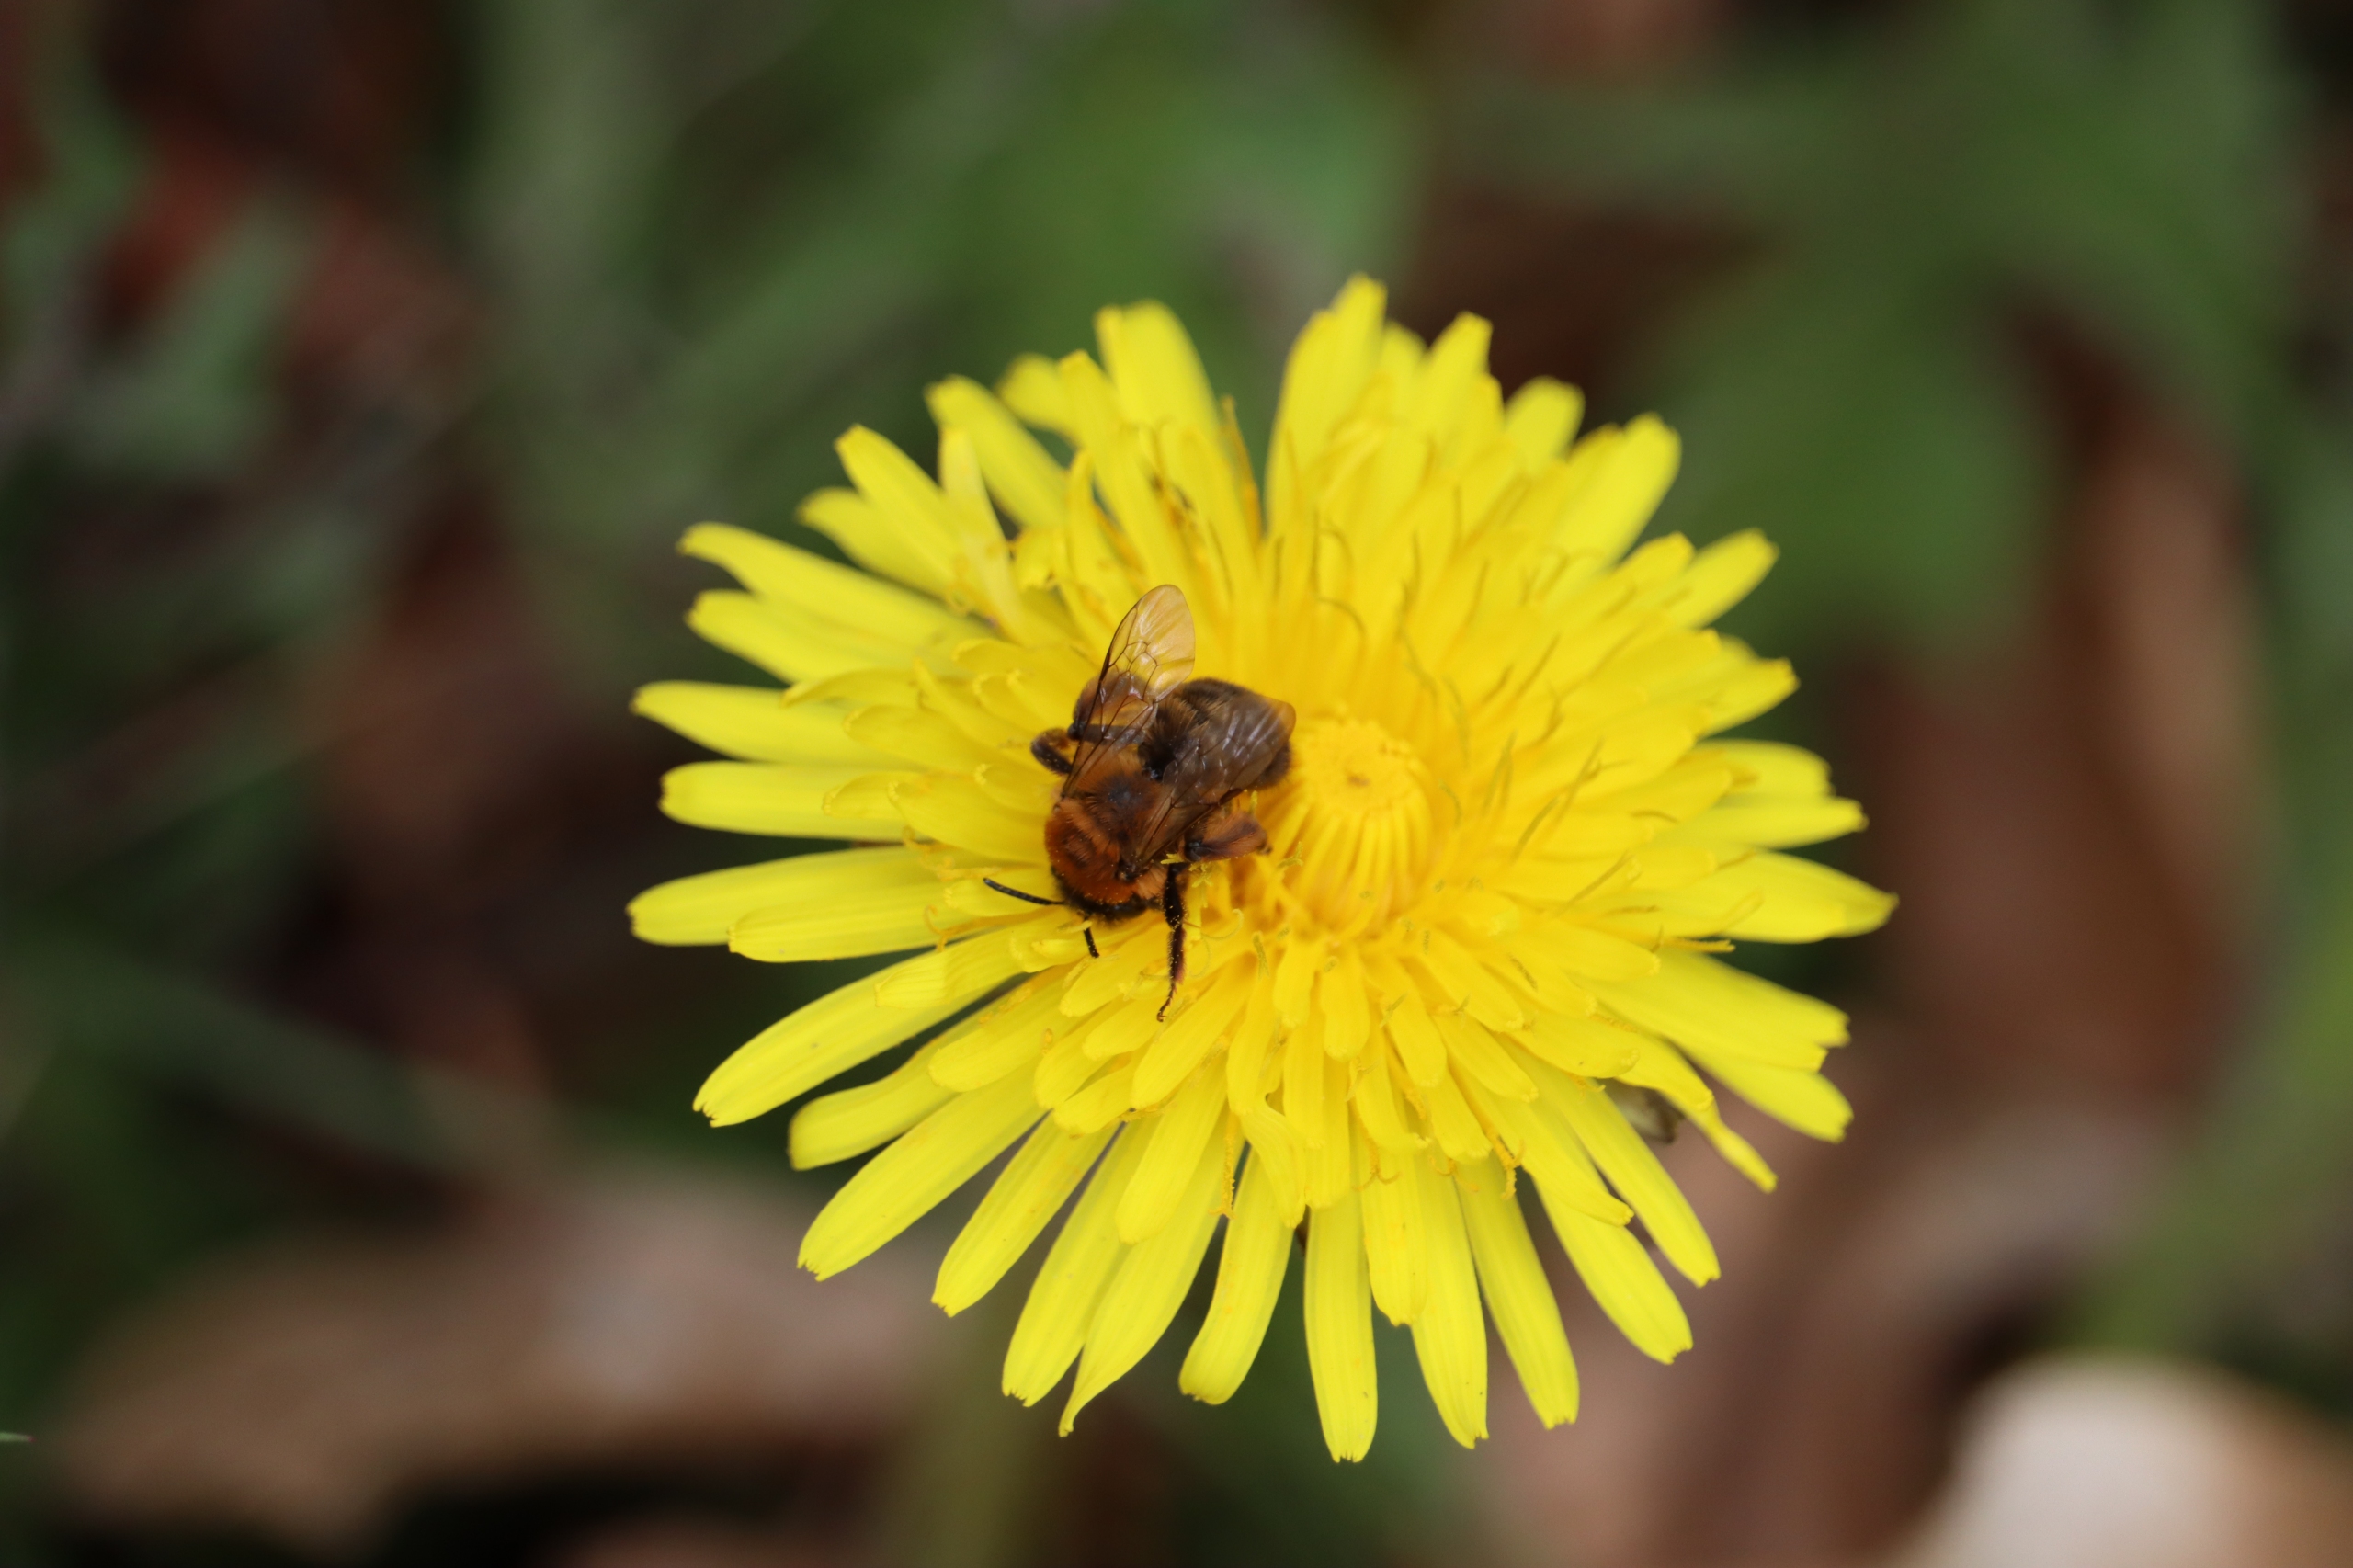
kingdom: Animalia
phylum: Arthropoda
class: Insecta
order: Hymenoptera
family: Andrenidae
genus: Andrena
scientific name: Andrena
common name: Jordbier
